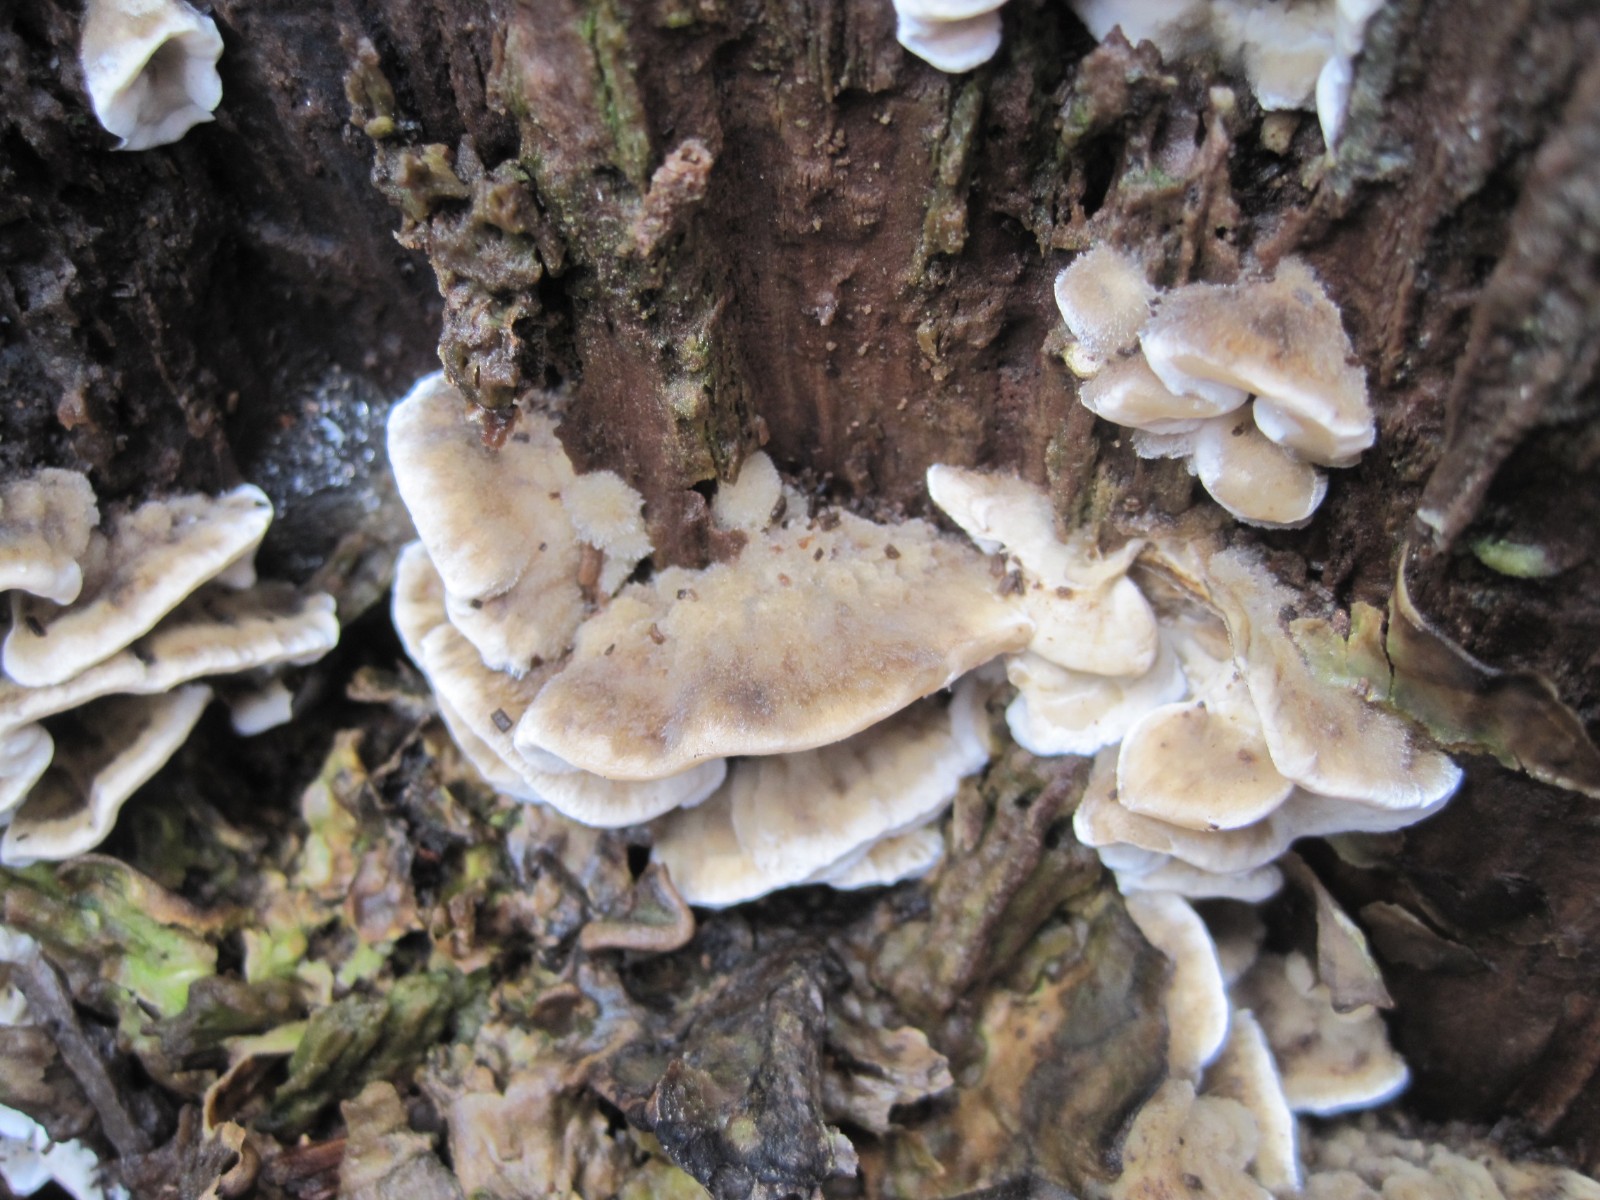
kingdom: Fungi
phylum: Basidiomycota
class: Agaricomycetes
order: Polyporales
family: Phanerochaetaceae
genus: Bjerkandera
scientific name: Bjerkandera adusta
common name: sveden sodporesvamp
